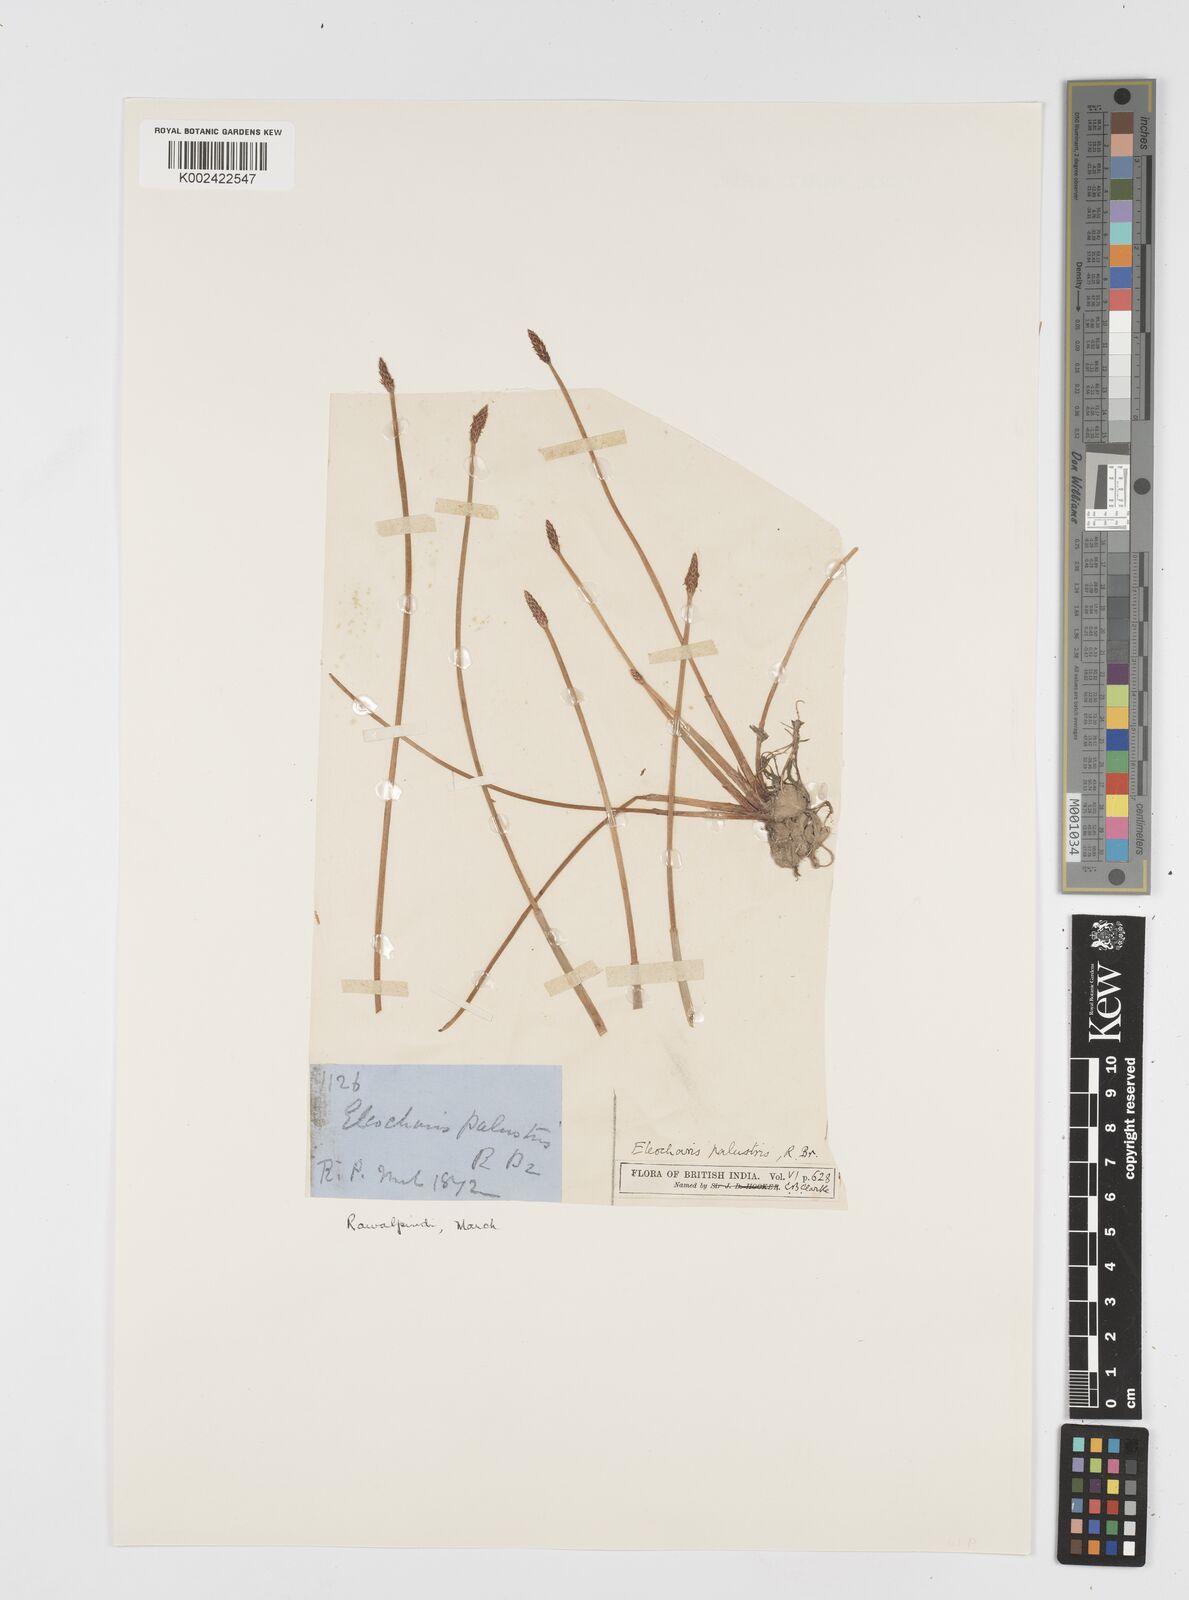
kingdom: Plantae
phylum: Tracheophyta
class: Liliopsida
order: Poales
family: Cyperaceae
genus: Eleocharis
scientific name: Eleocharis palustris
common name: Common spike-rush
